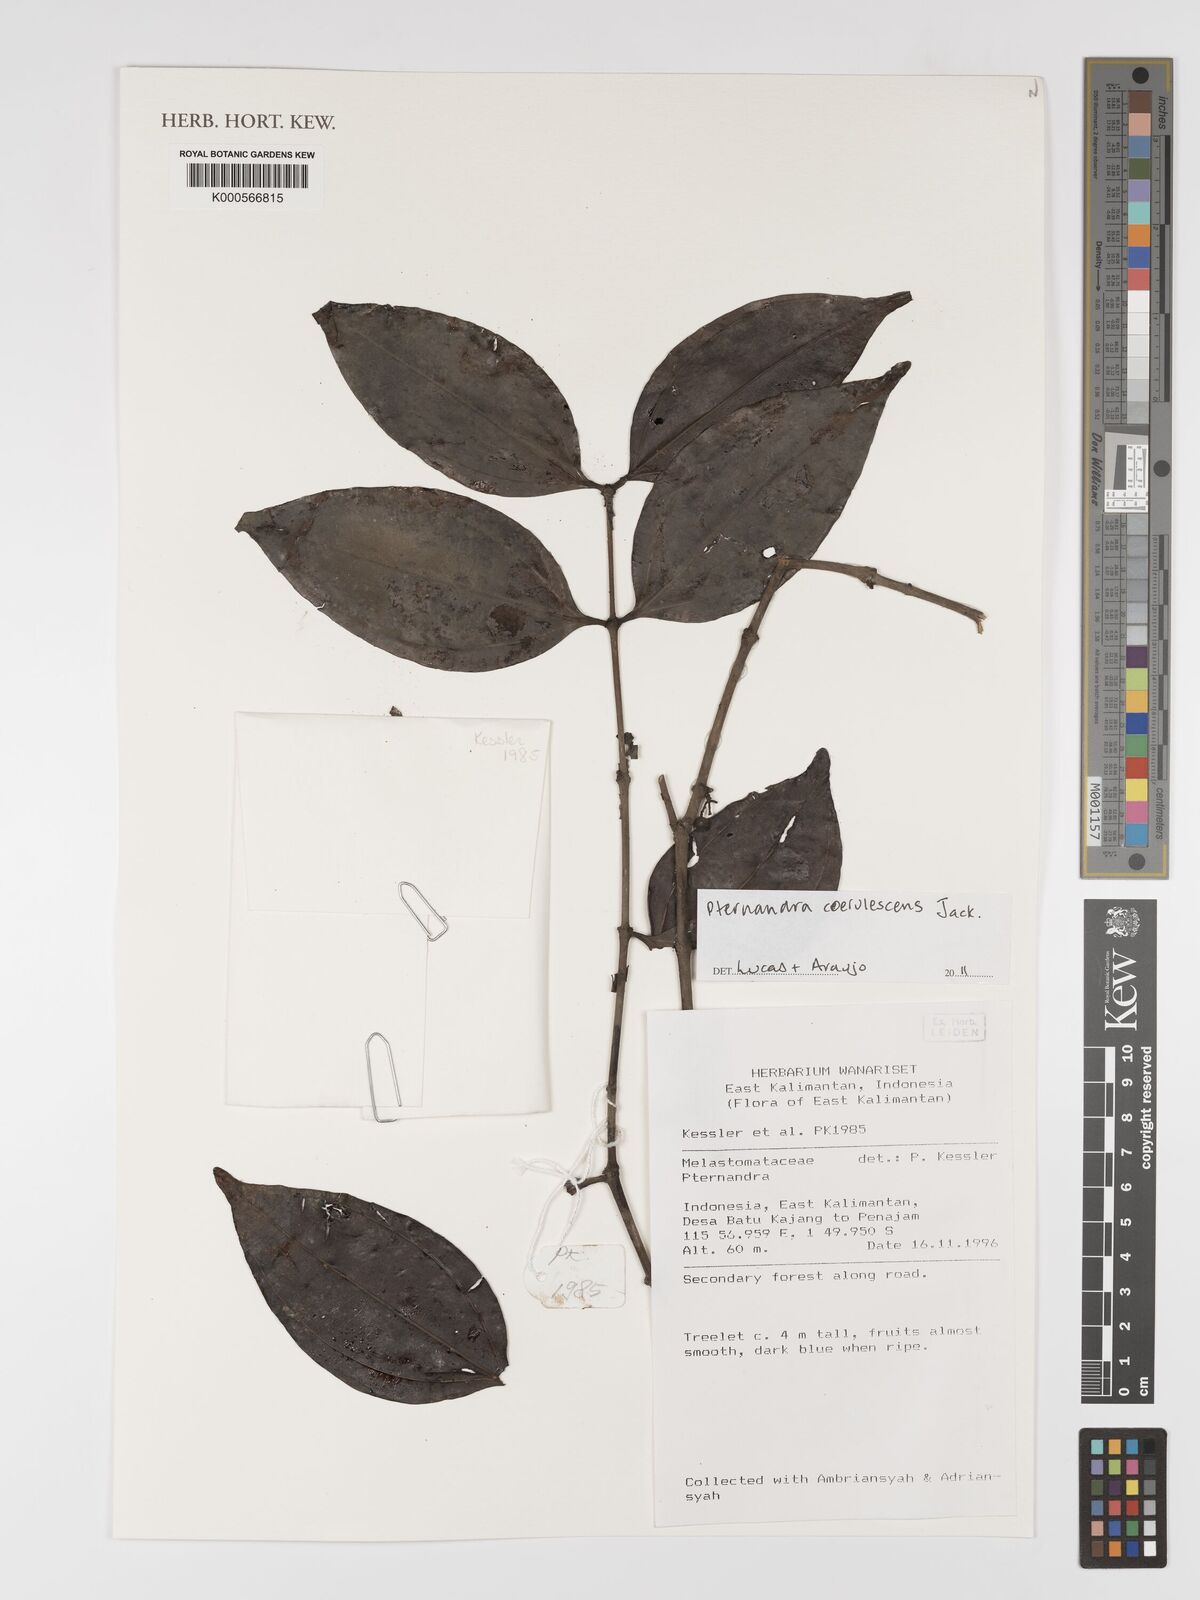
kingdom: Plantae
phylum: Tracheophyta
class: Magnoliopsida
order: Myrtales
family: Melastomataceae
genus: Pternandra
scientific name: Pternandra
